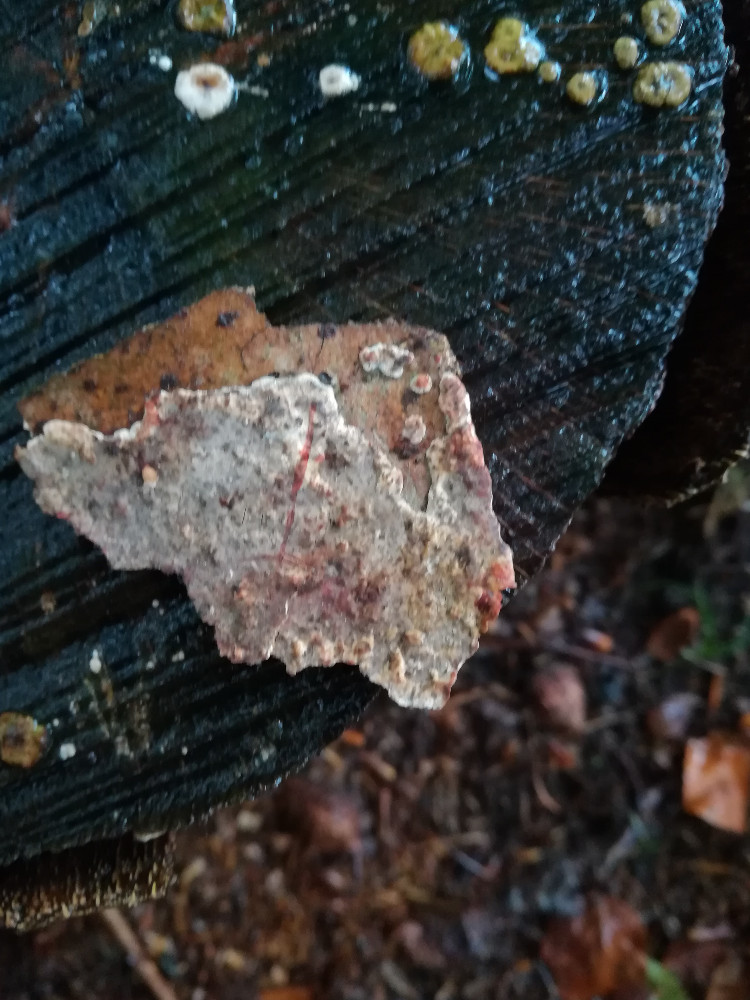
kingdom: Fungi
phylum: Basidiomycota
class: Agaricomycetes
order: Russulales
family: Stereaceae
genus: Stereum
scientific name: Stereum sanguinolentum
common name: blødende lædersvamp
